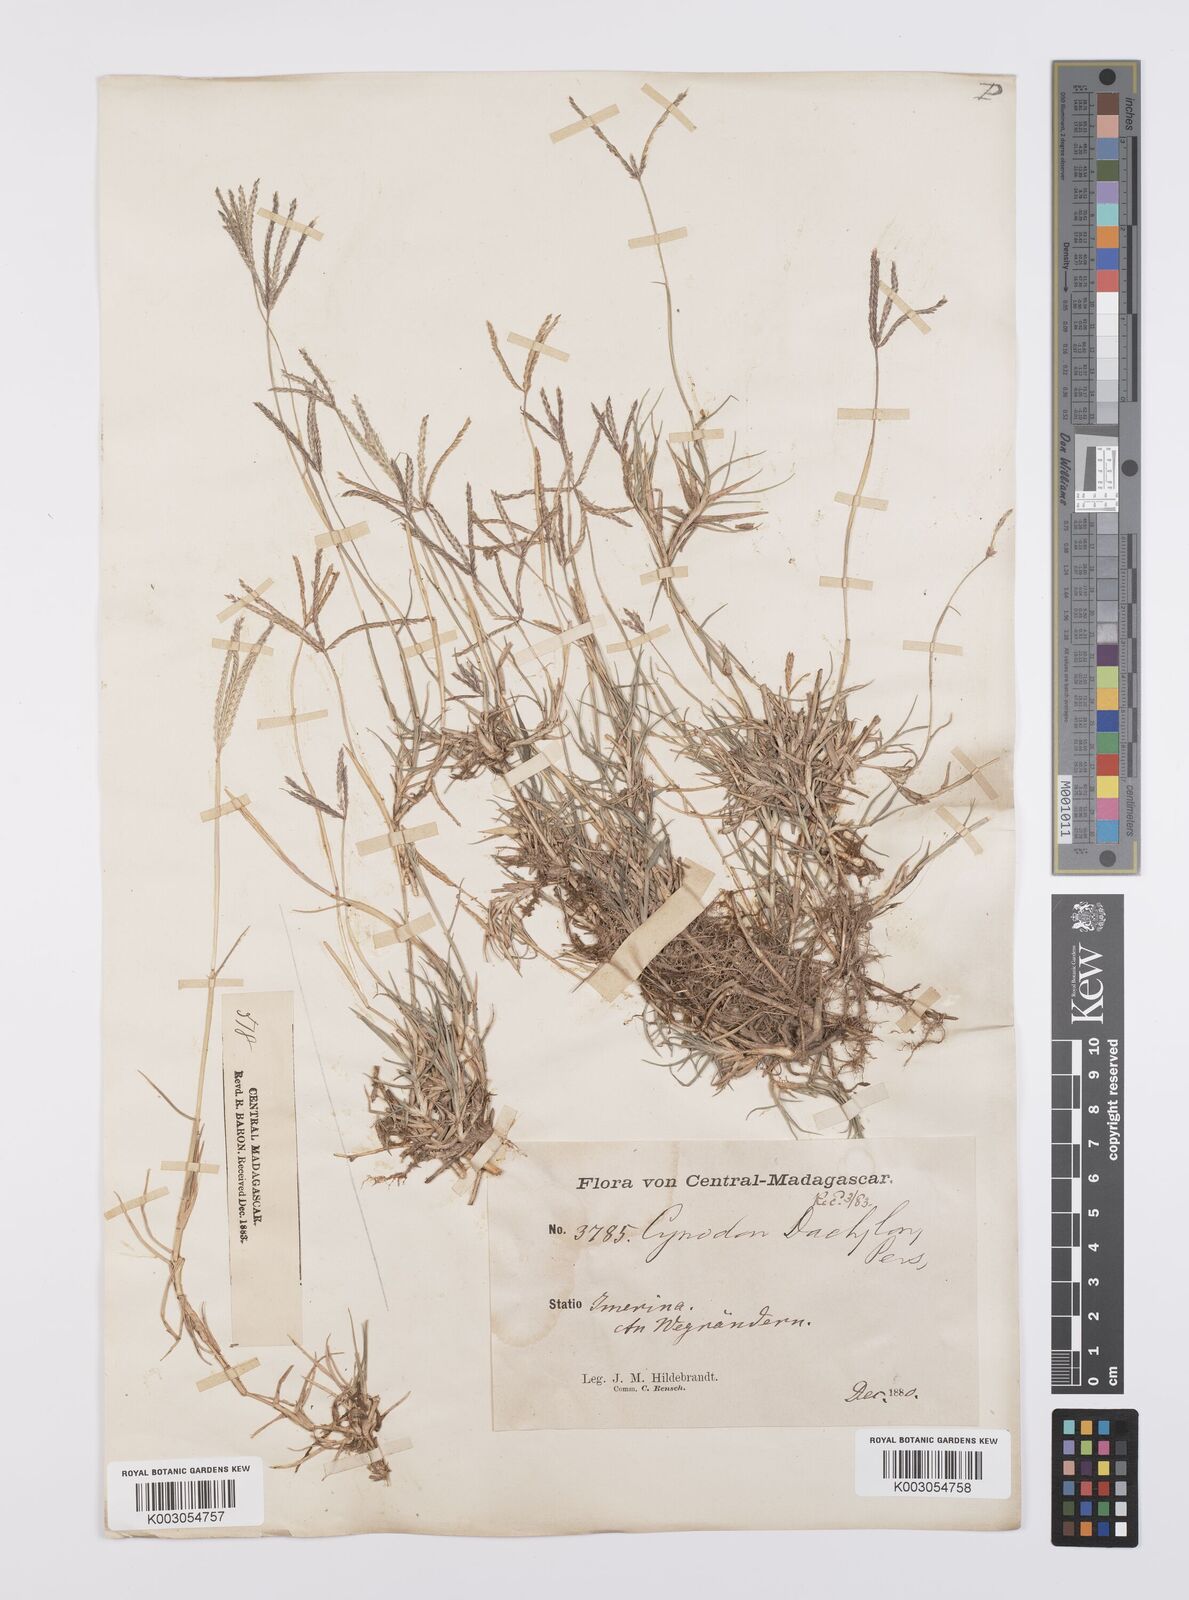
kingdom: Plantae
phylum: Tracheophyta
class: Liliopsida
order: Poales
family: Poaceae
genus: Cynodon
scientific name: Cynodon dactylon
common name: Bermuda grass
